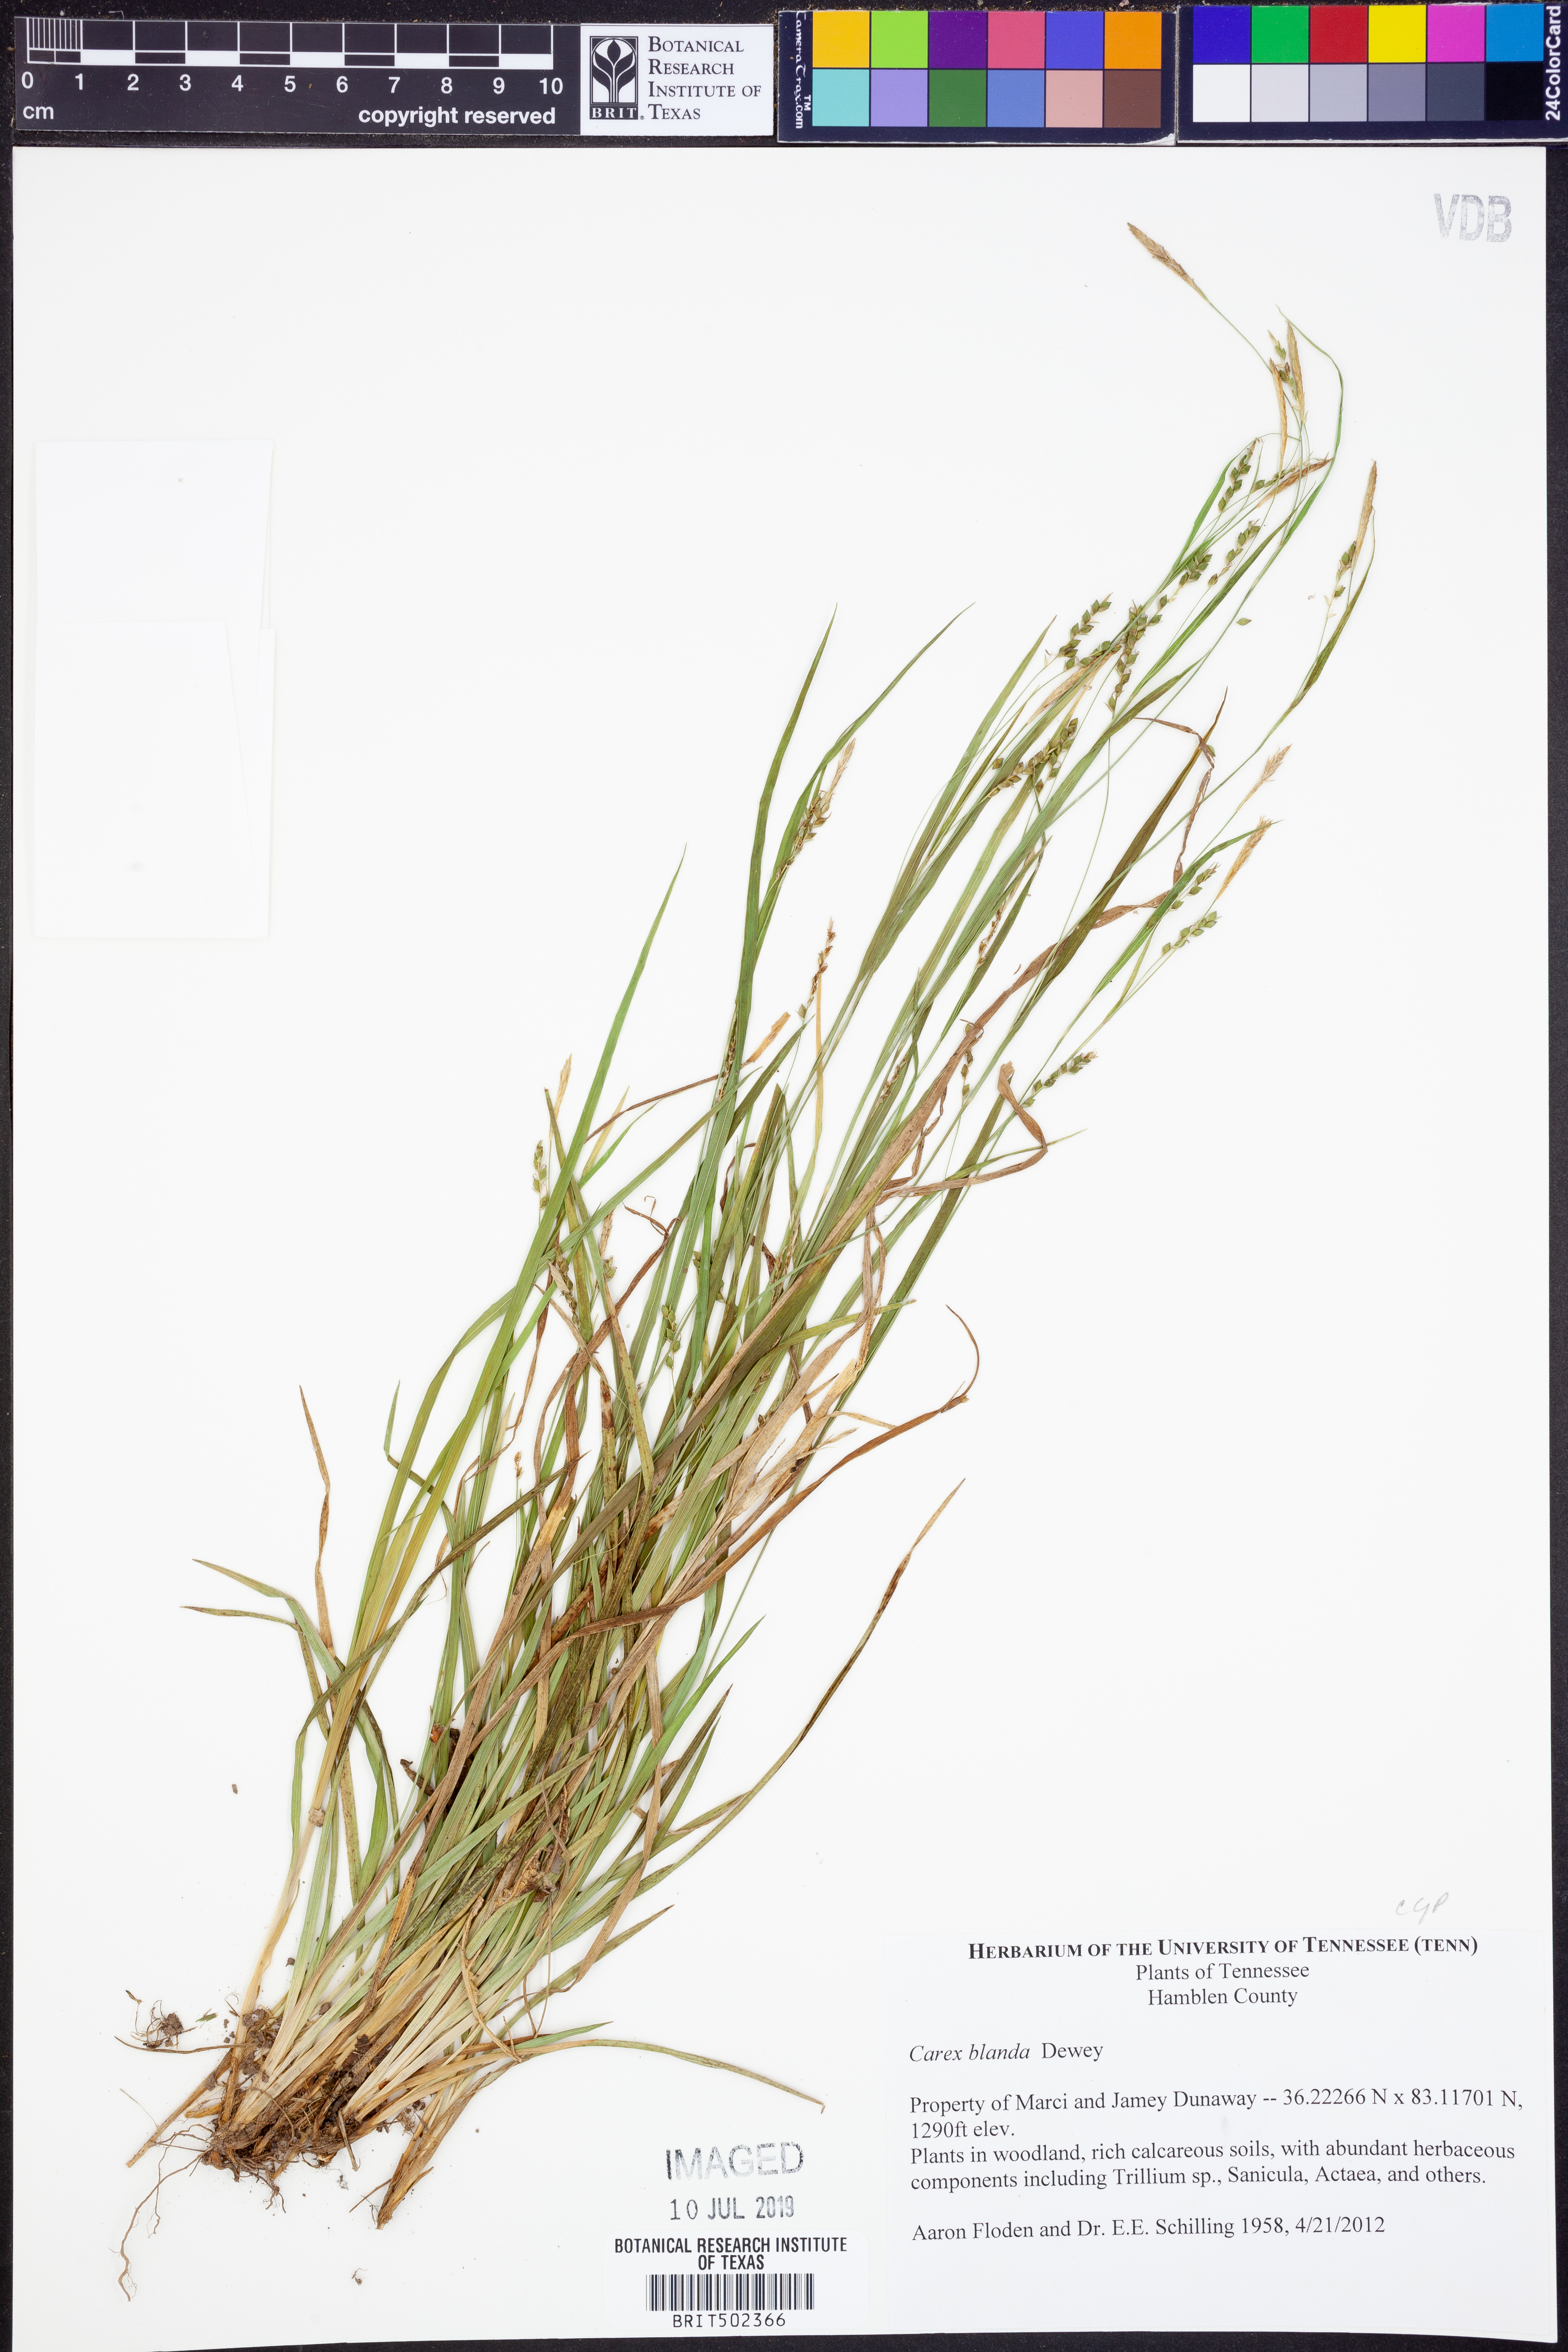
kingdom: Plantae
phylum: Tracheophyta
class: Liliopsida
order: Poales
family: Cyperaceae
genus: Carex
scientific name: Carex blanda
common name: Bland sedge
